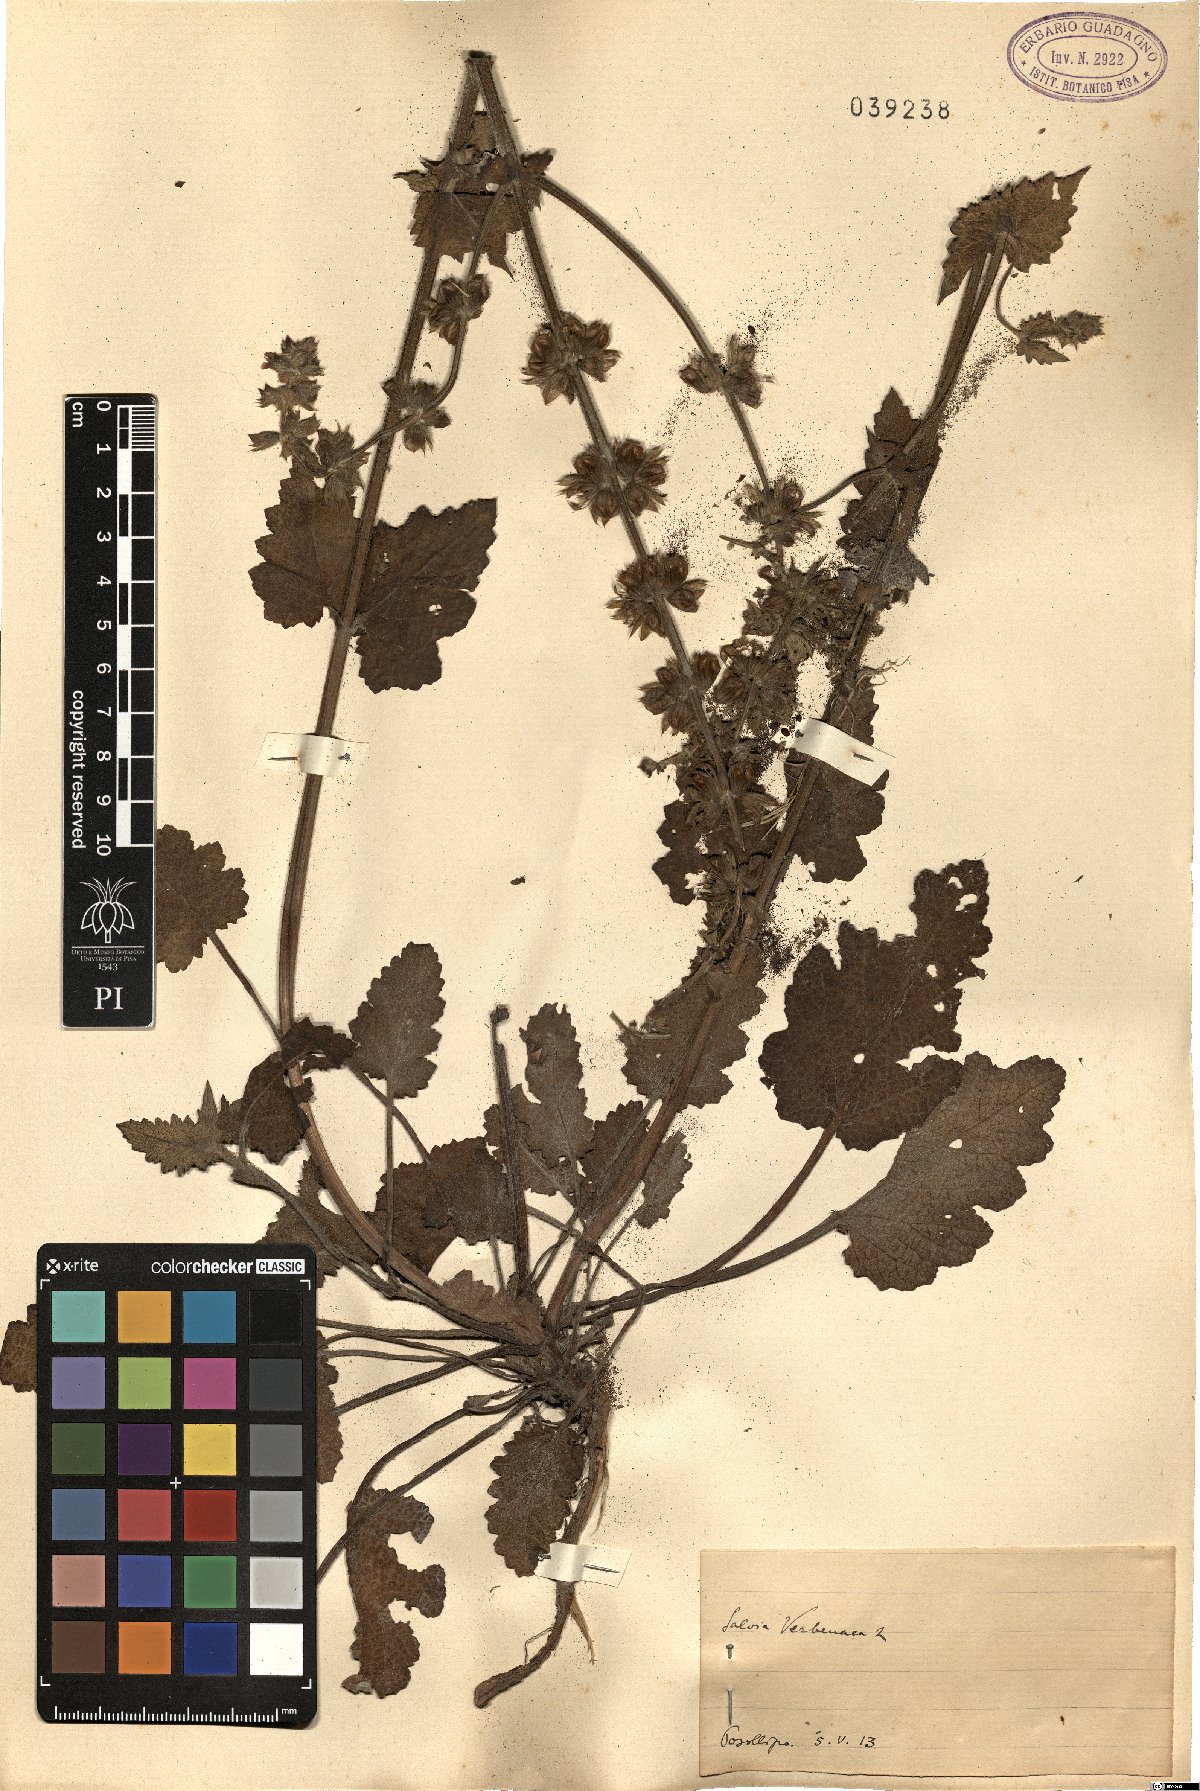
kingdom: Plantae
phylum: Tracheophyta
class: Magnoliopsida
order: Lamiales
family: Lamiaceae
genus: Salvia
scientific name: Salvia verbenaca
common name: Wild clary
